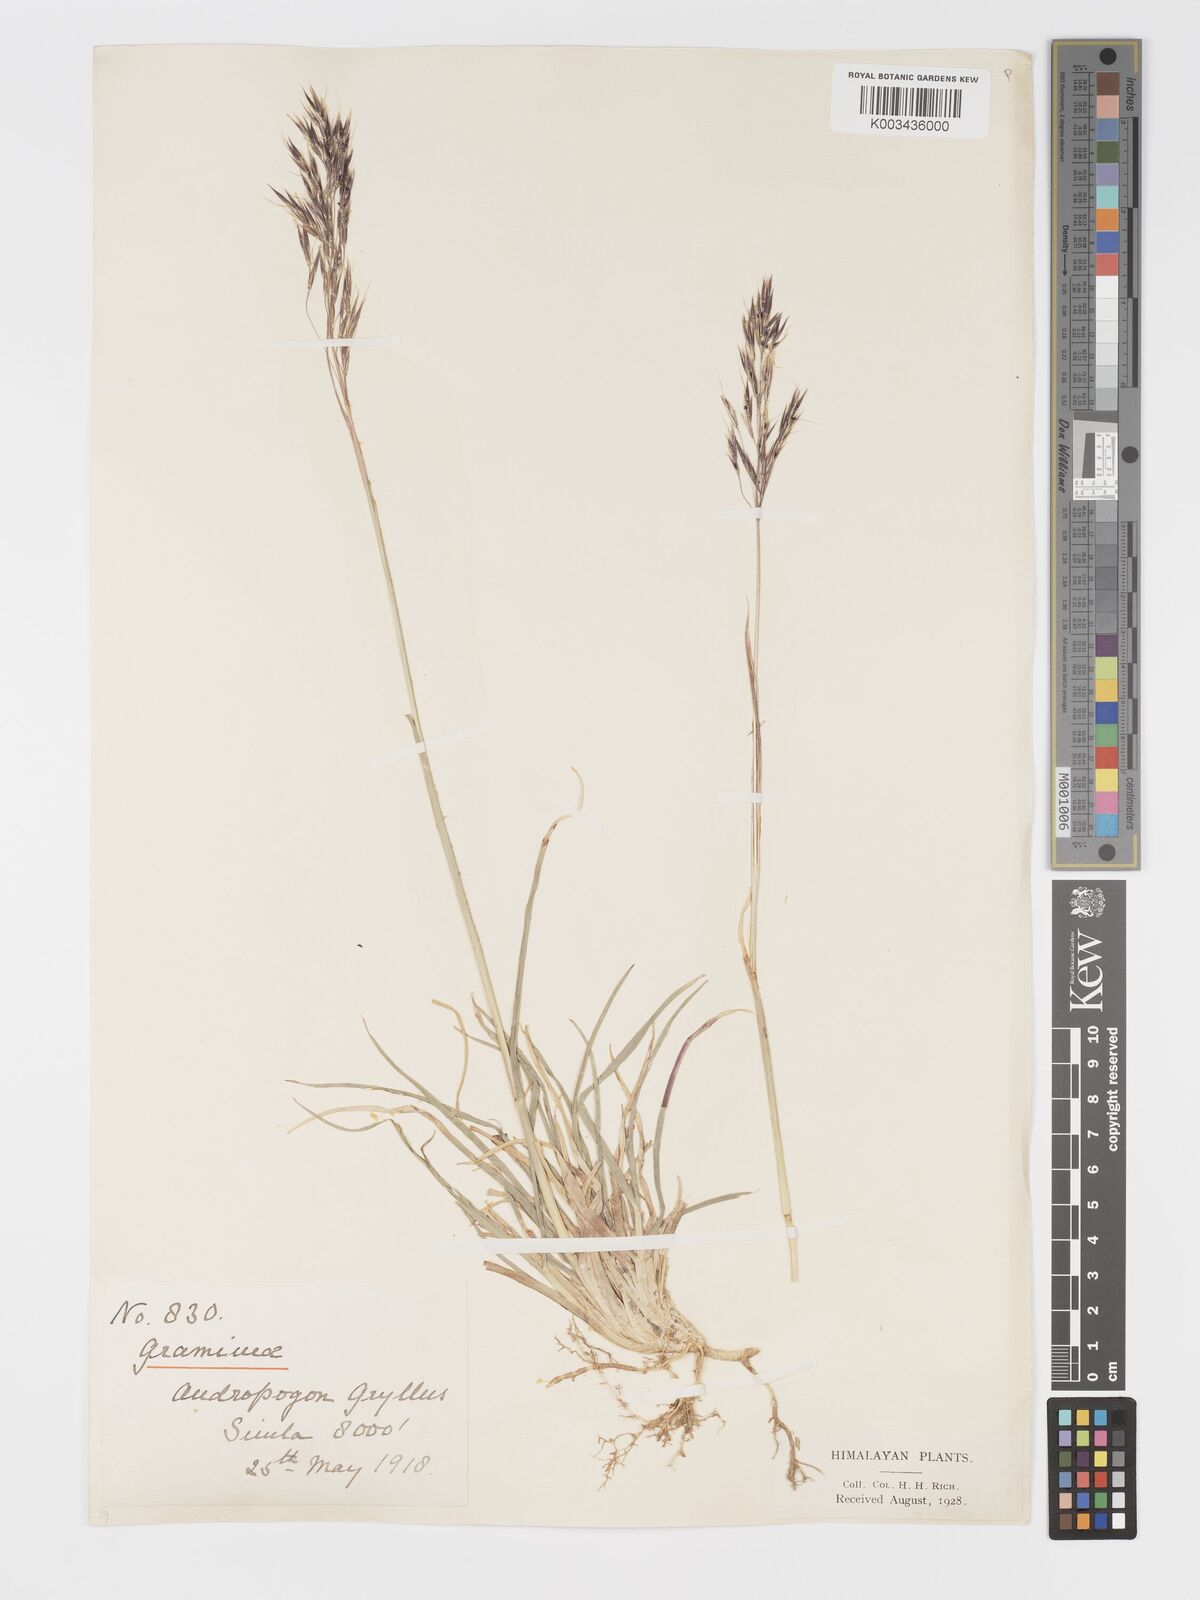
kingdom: Plantae
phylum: Tracheophyta
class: Liliopsida
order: Poales
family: Poaceae
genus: Chrysopogon
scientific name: Chrysopogon gryllus
